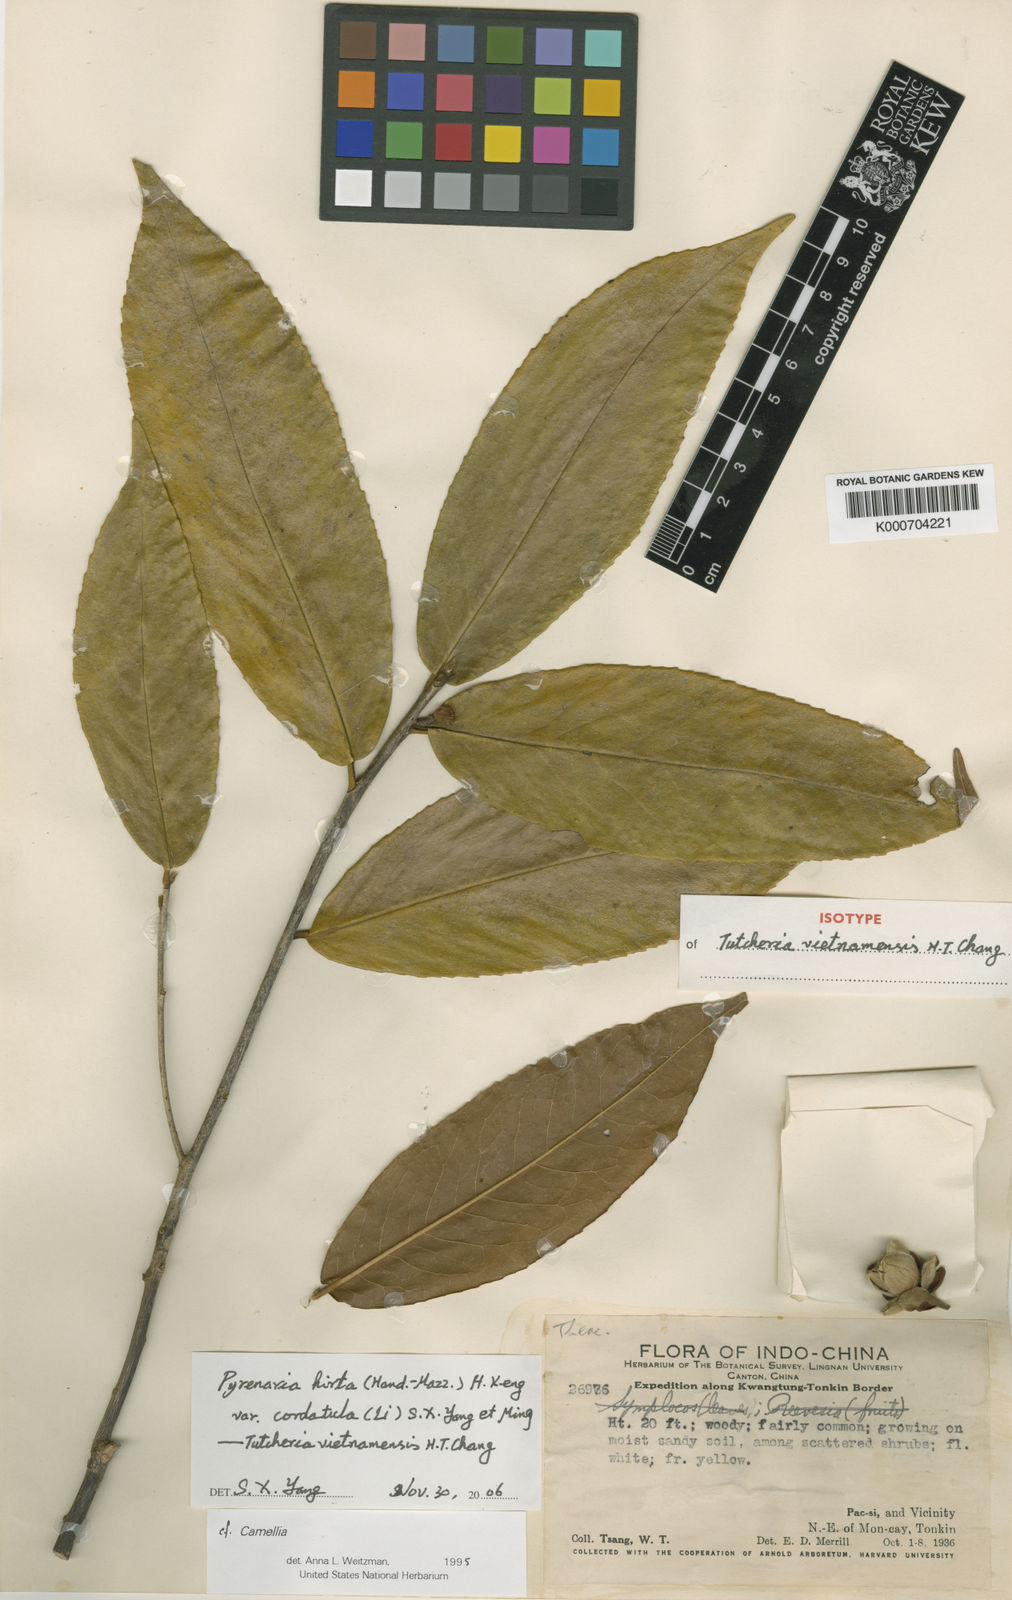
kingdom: Plantae
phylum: Tracheophyta
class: Magnoliopsida
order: Ericales
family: Theaceae
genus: Pyrenaria
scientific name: Pyrenaria hirta
